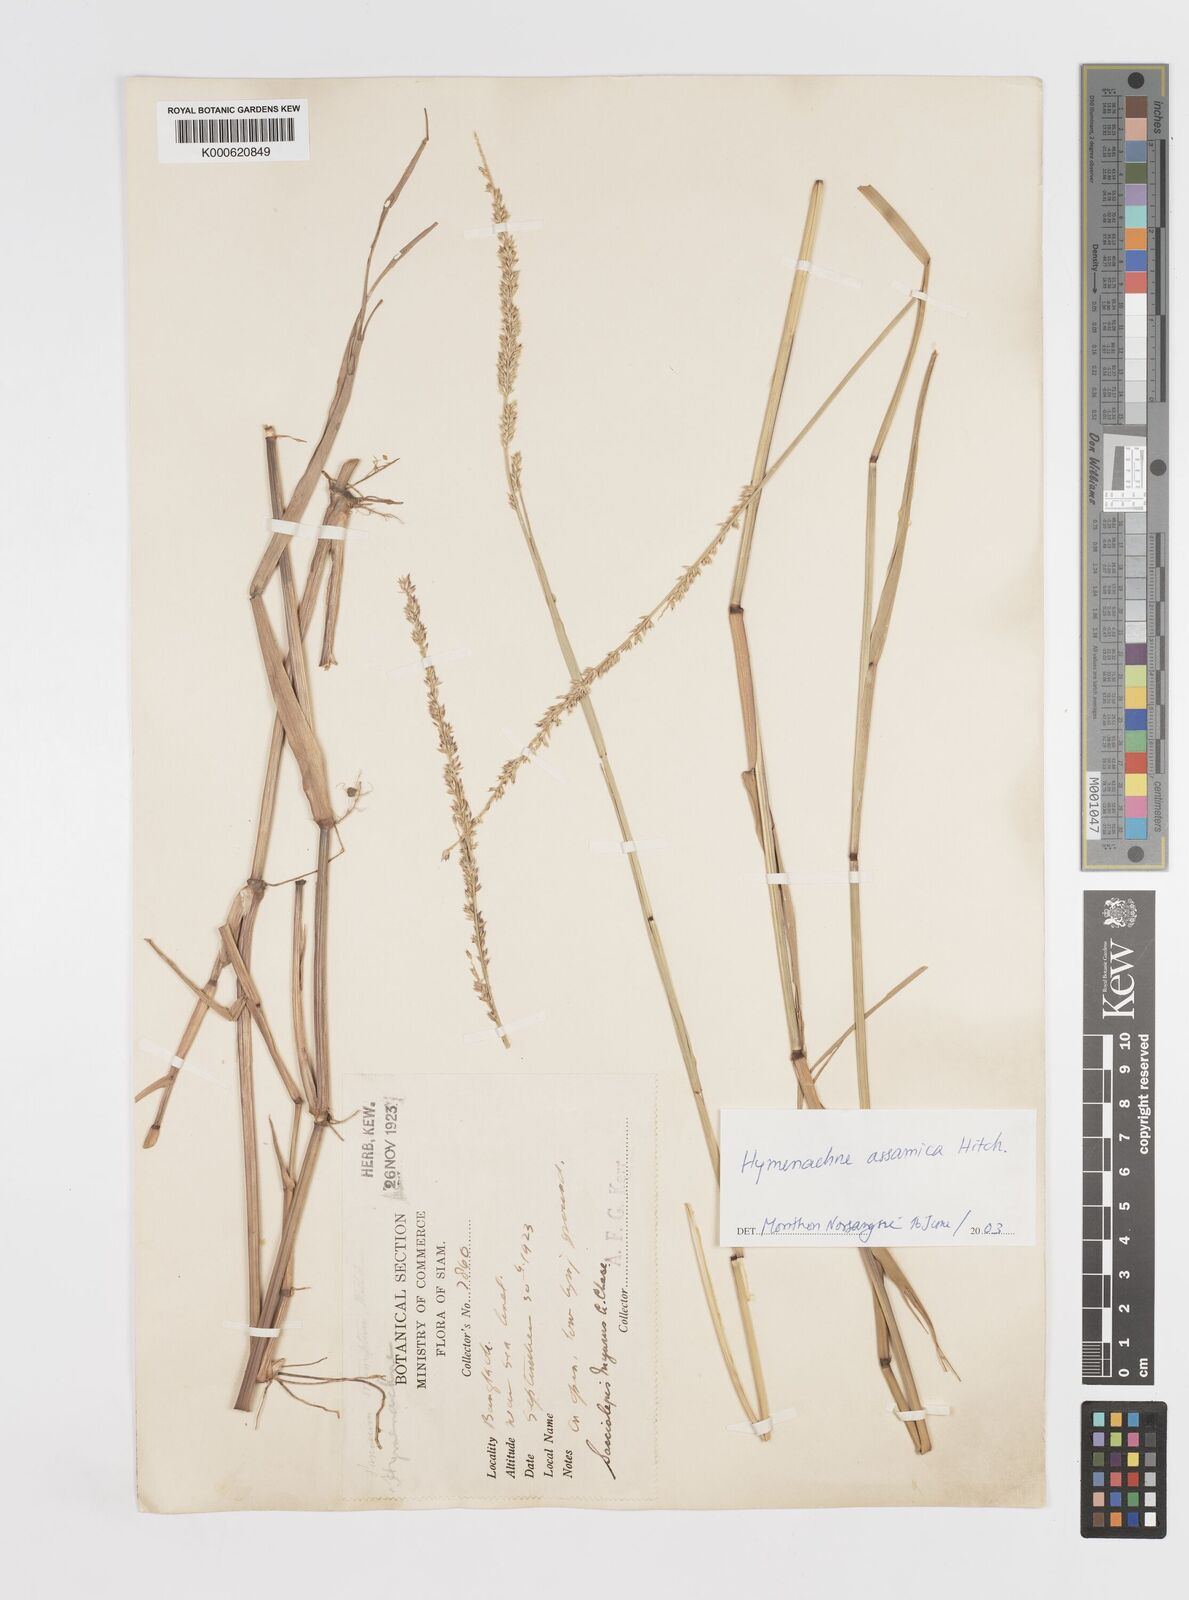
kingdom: Plantae
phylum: Tracheophyta
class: Liliopsida
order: Poales
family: Poaceae
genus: Hymenachne
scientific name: Hymenachne assamica
